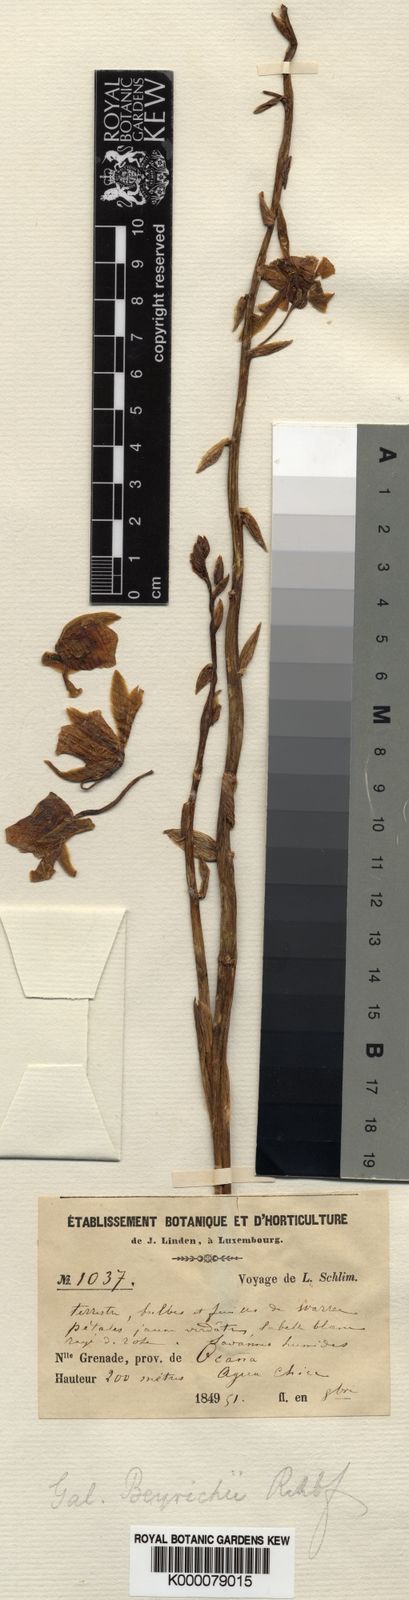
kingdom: Plantae
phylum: Tracheophyta
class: Liliopsida
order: Asparagales
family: Orchidaceae
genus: Galeandra
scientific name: Galeandra beyrichii
